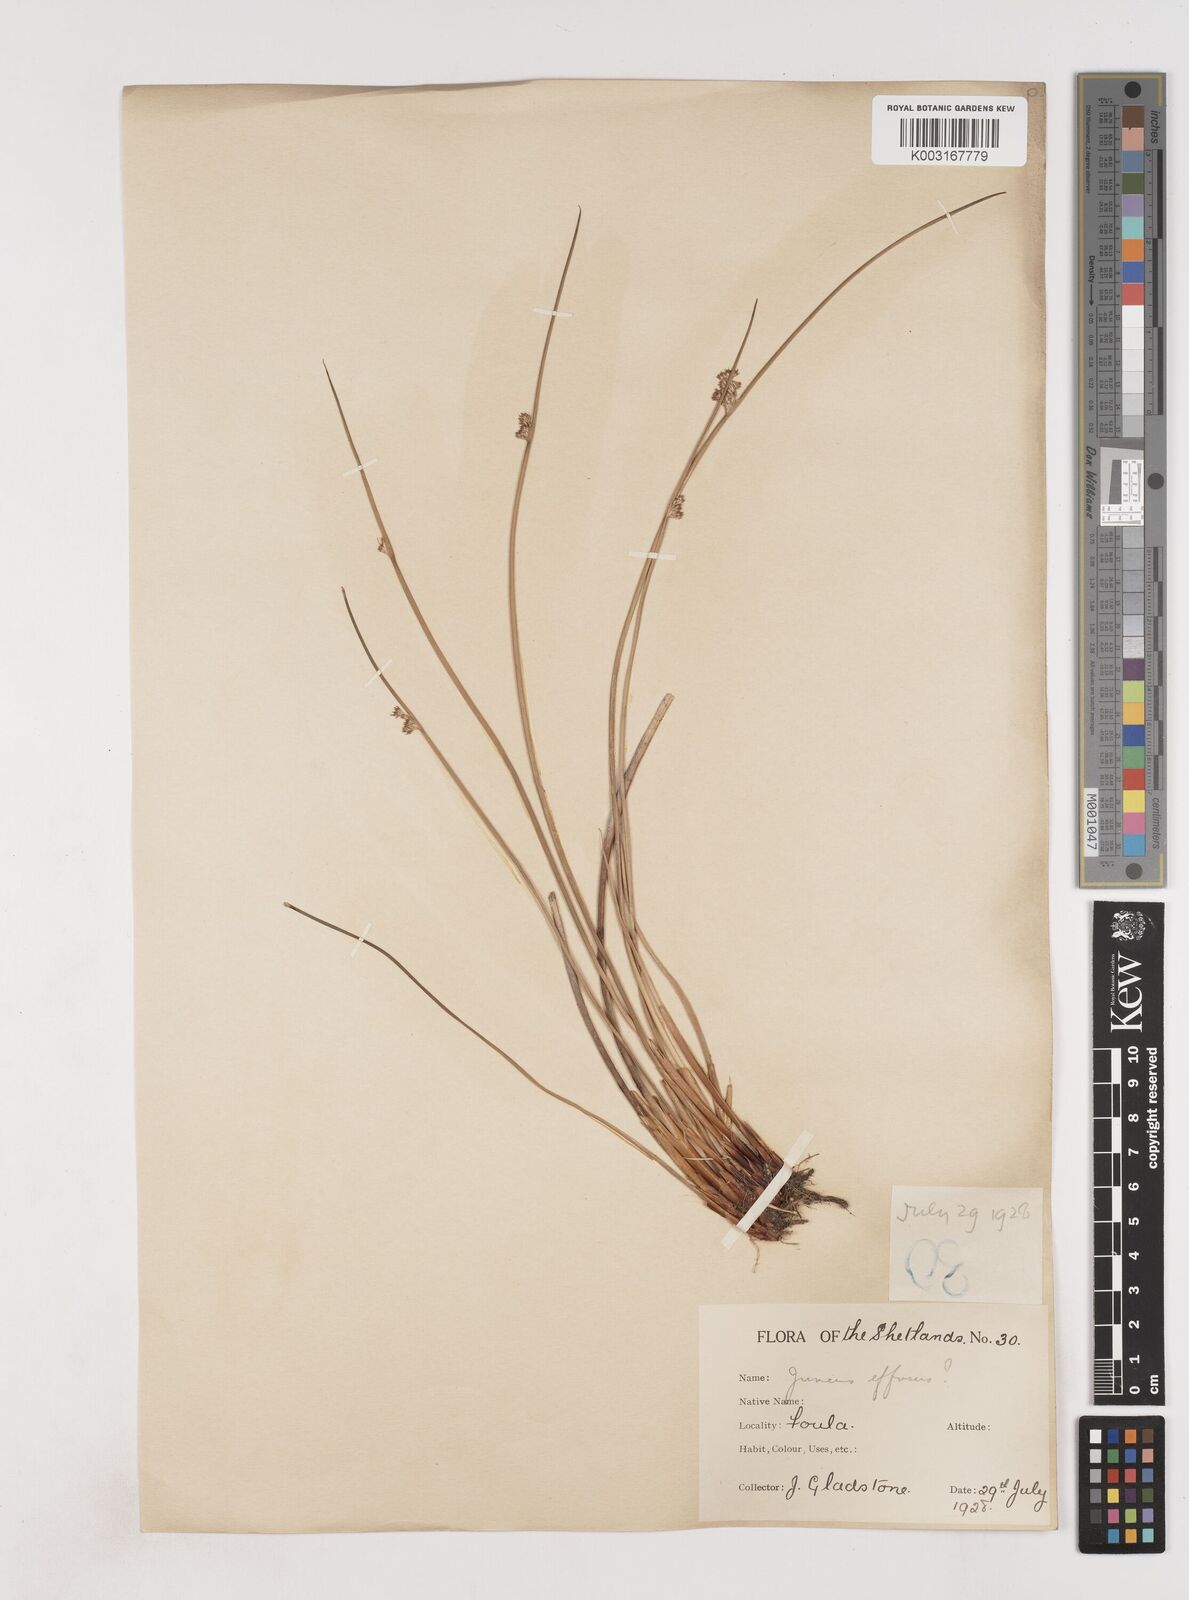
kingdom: Plantae
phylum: Tracheophyta
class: Liliopsida
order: Poales
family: Juncaceae
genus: Juncus
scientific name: Juncus effusus
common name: Soft rush
